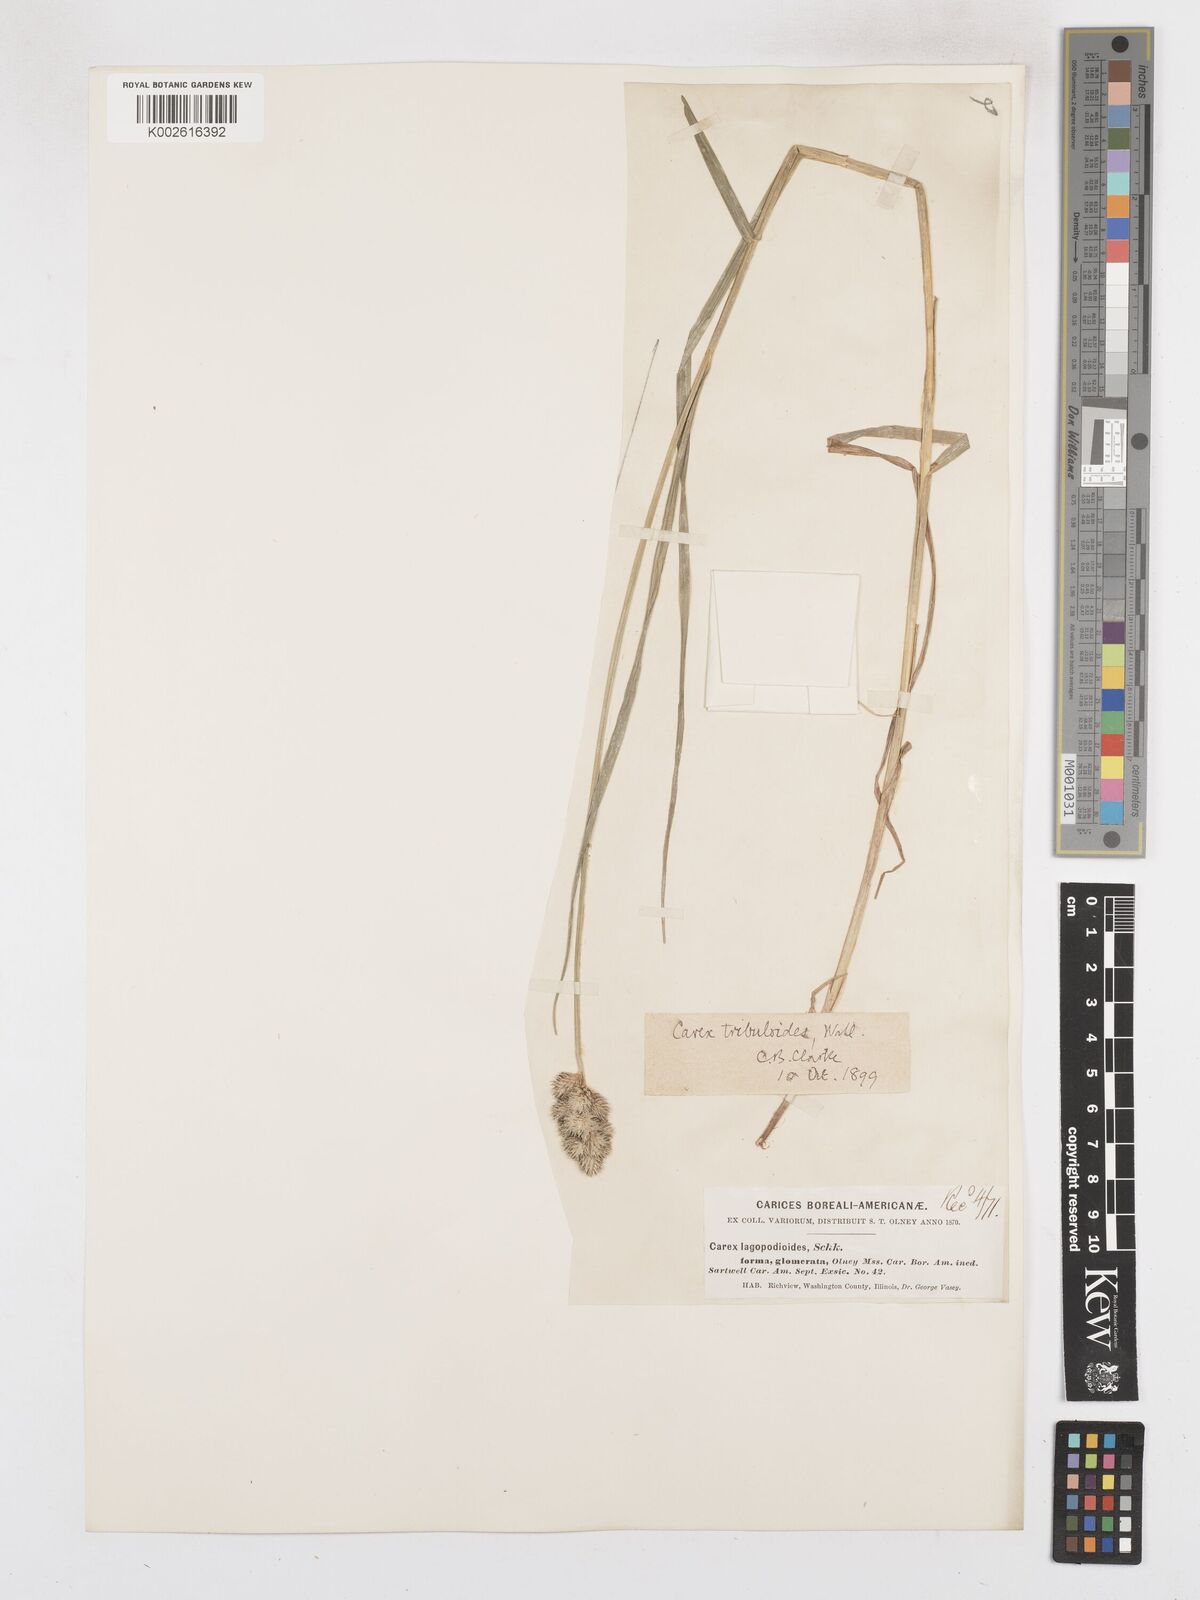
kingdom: Plantae
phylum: Tracheophyta
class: Liliopsida
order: Poales
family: Cyperaceae
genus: Carex
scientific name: Carex tribuloides
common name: Blunt broom sedge
